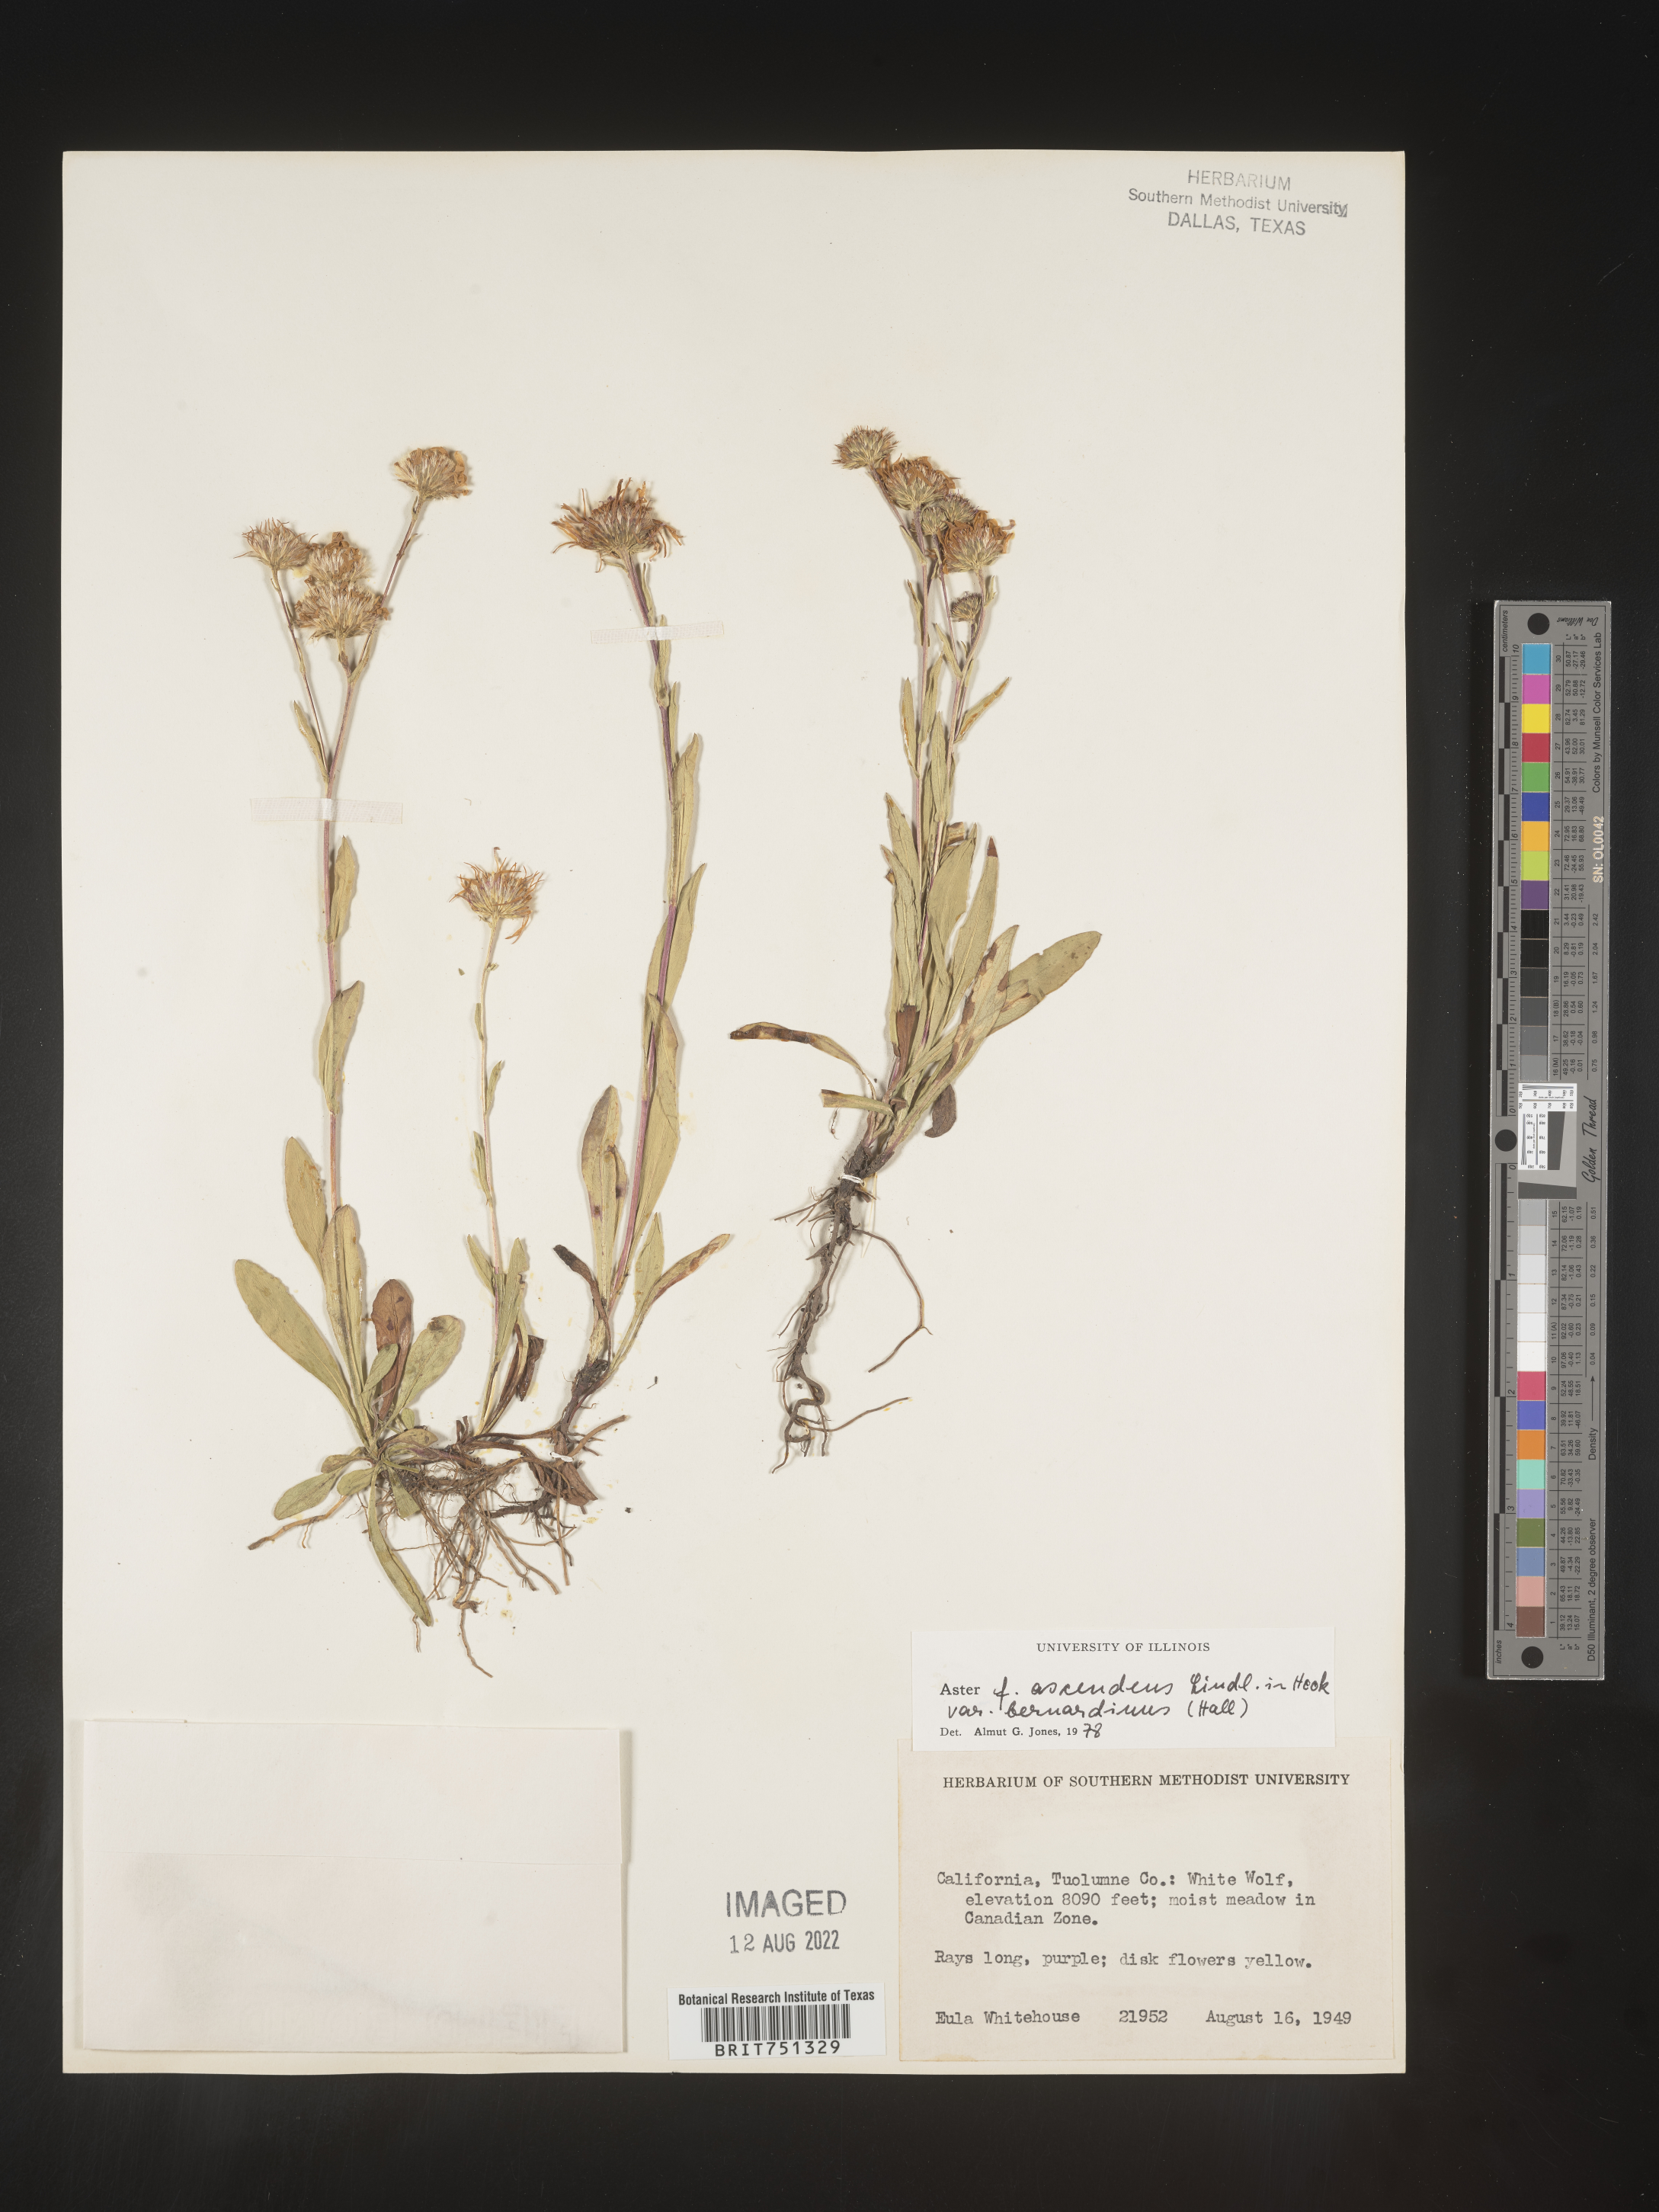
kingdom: Plantae
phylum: Tracheophyta
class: Magnoliopsida
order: Asterales
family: Asteraceae
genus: Aster
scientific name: Aster ascendens
